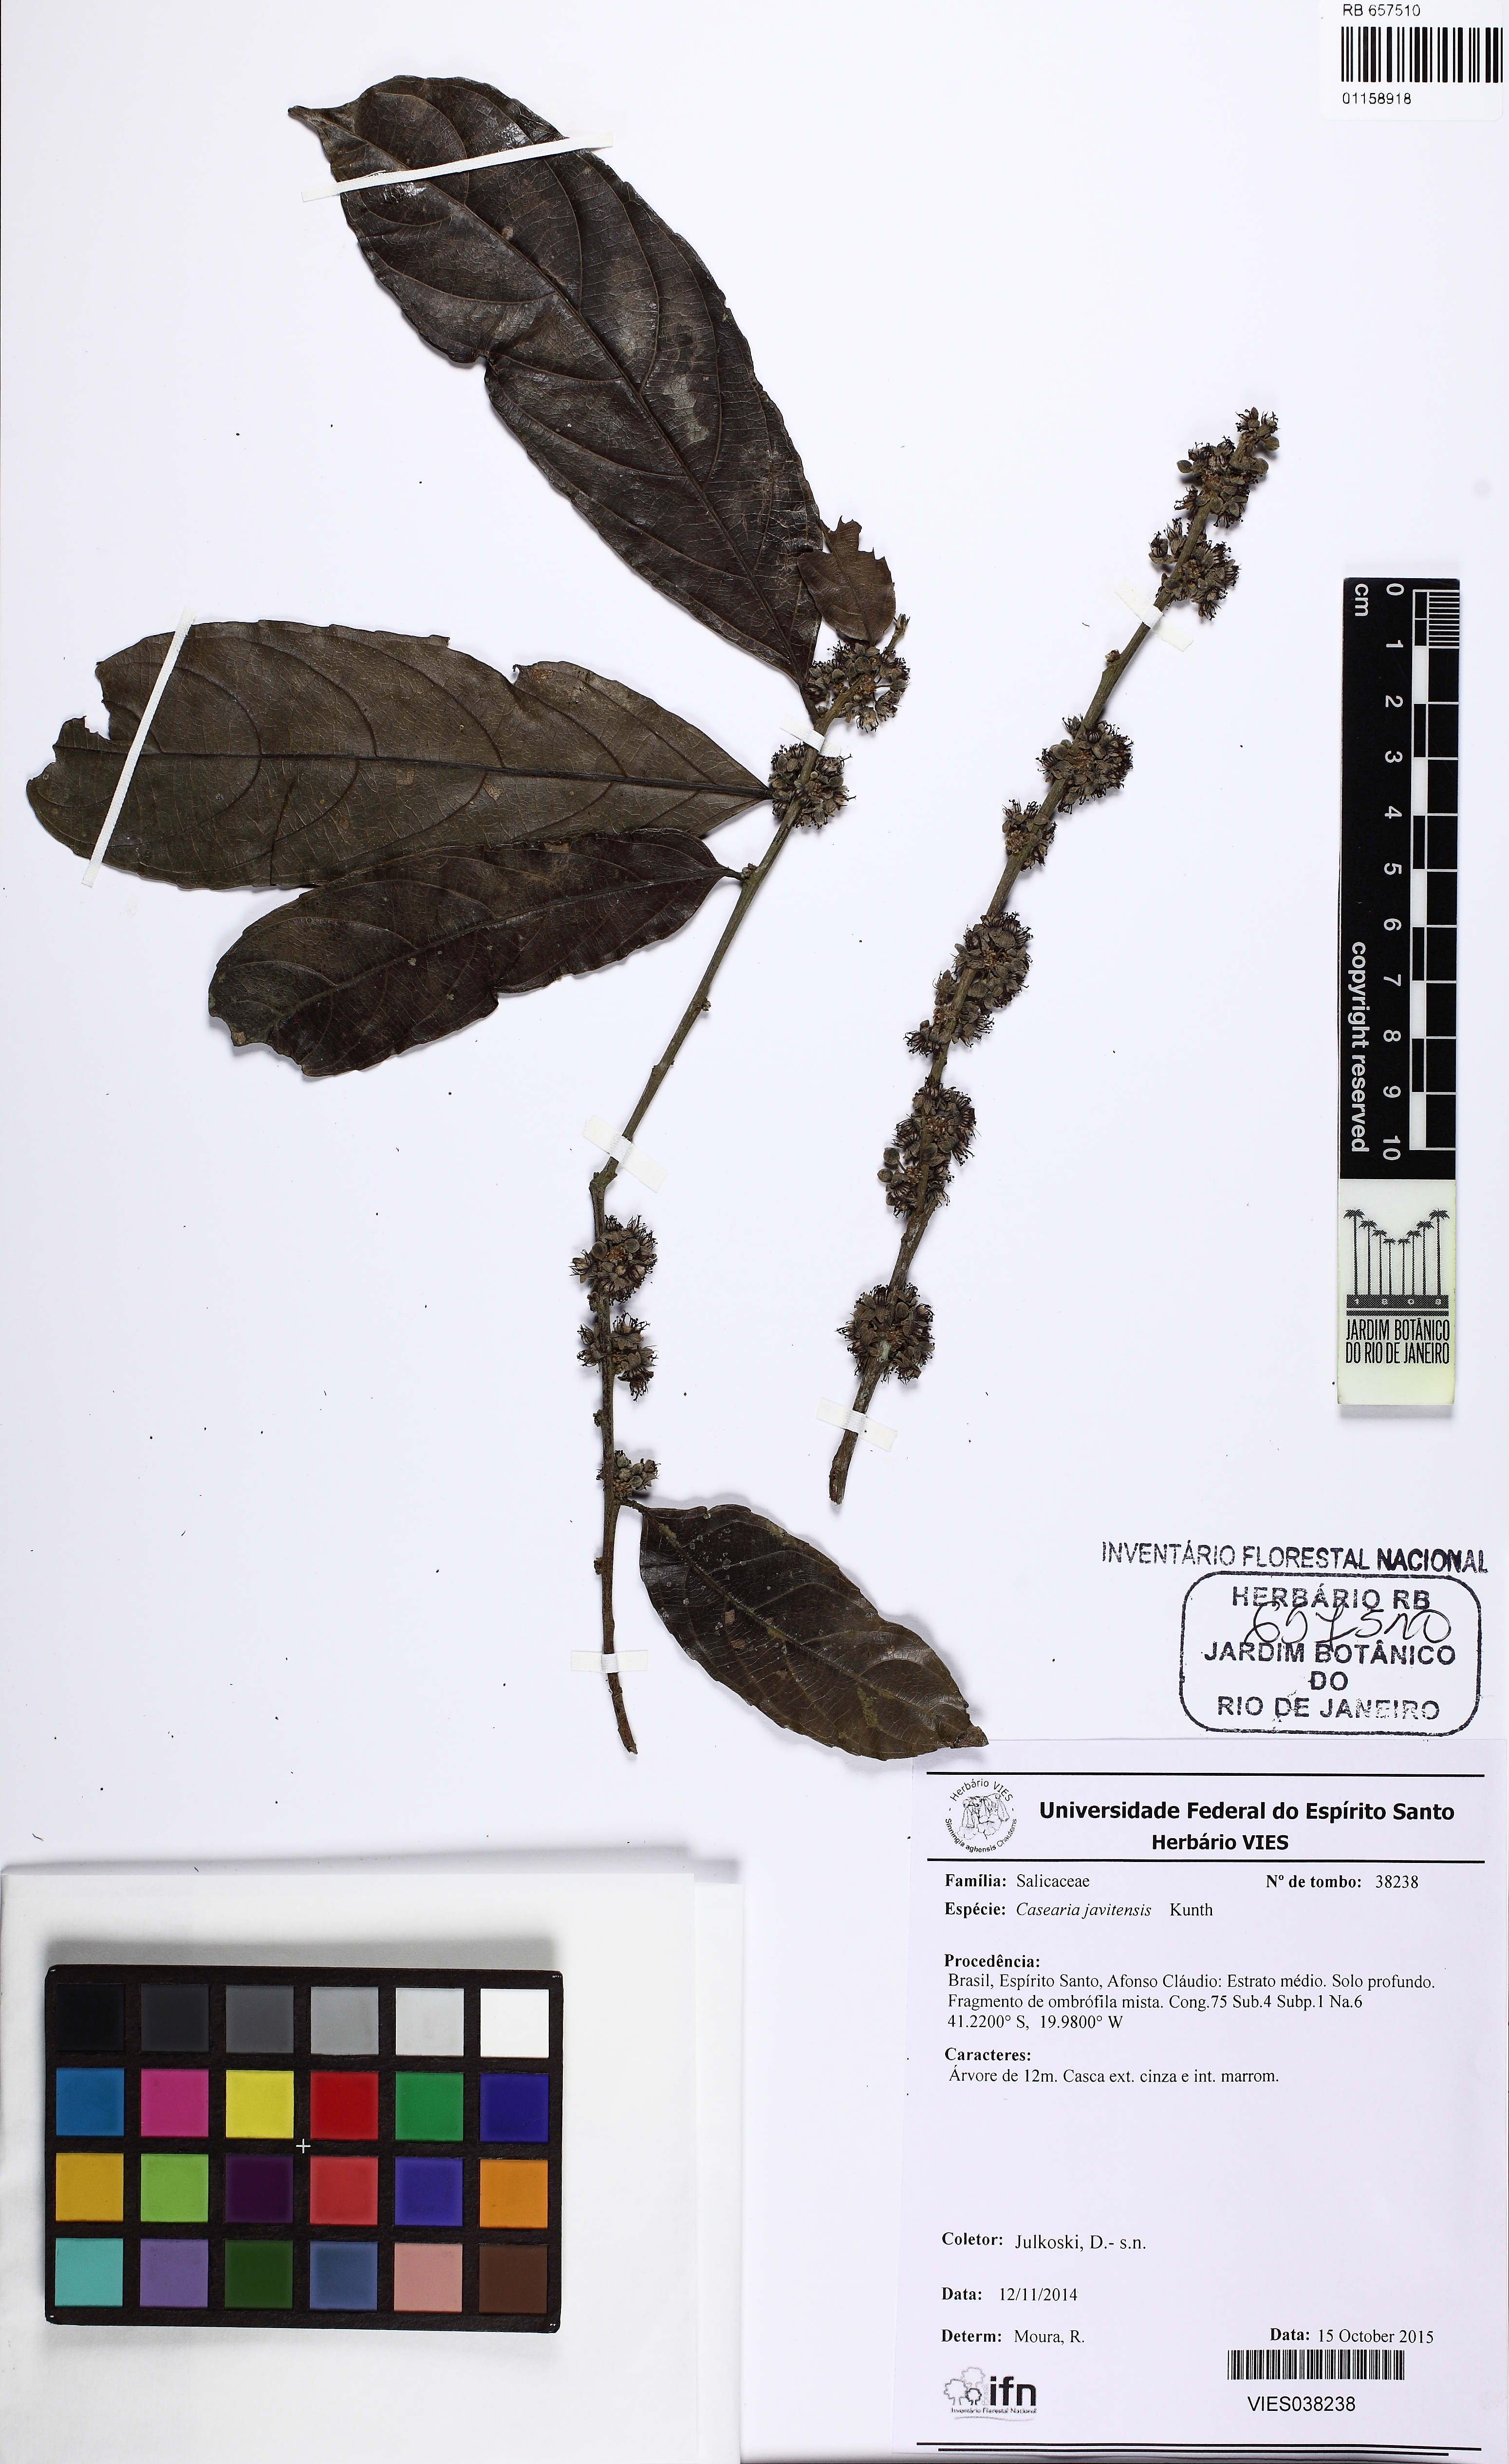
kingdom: Plantae
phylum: Tracheophyta
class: Magnoliopsida
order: Malpighiales
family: Salicaceae
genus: Piparea
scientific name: Piparea multiflora
